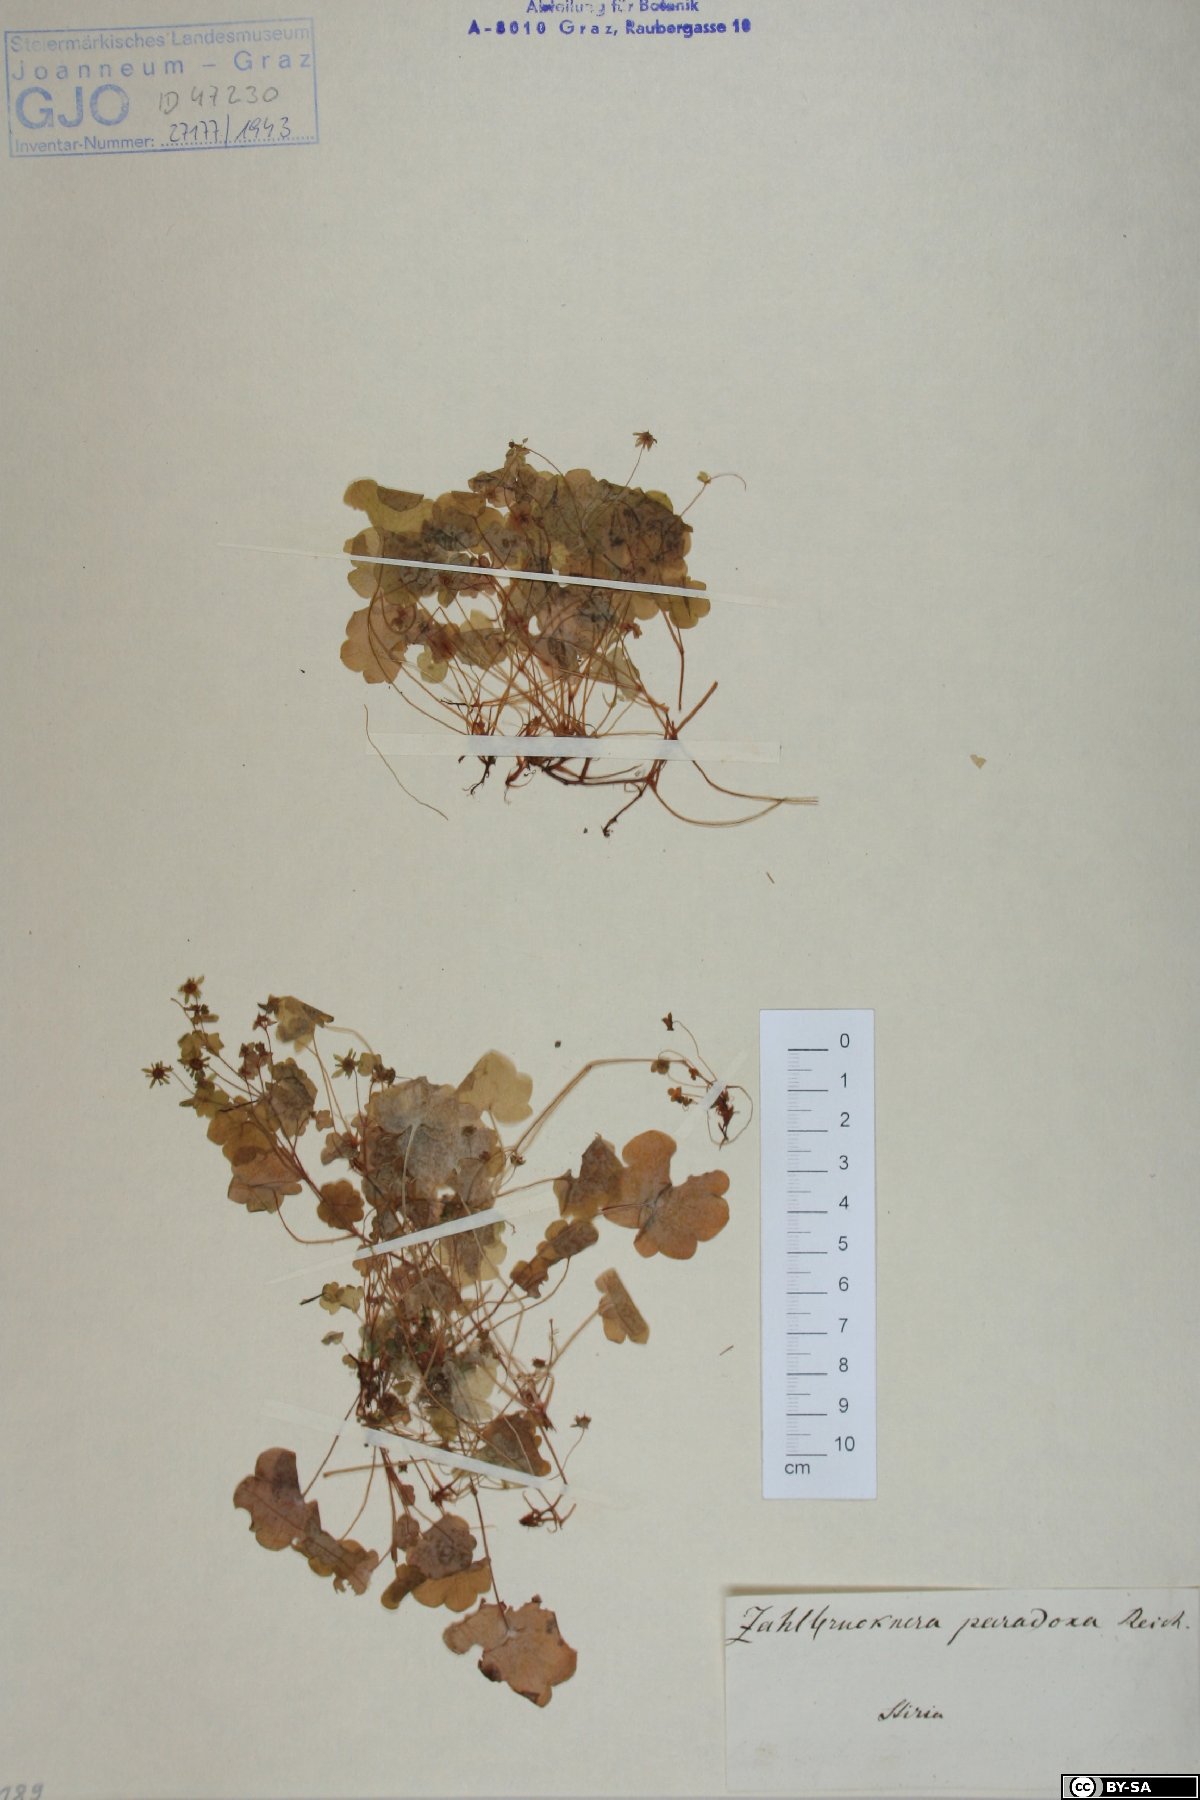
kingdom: Plantae
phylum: Tracheophyta
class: Magnoliopsida
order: Saxifragales
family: Saxifragaceae
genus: Saxifraga
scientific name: Saxifraga paradoxa
